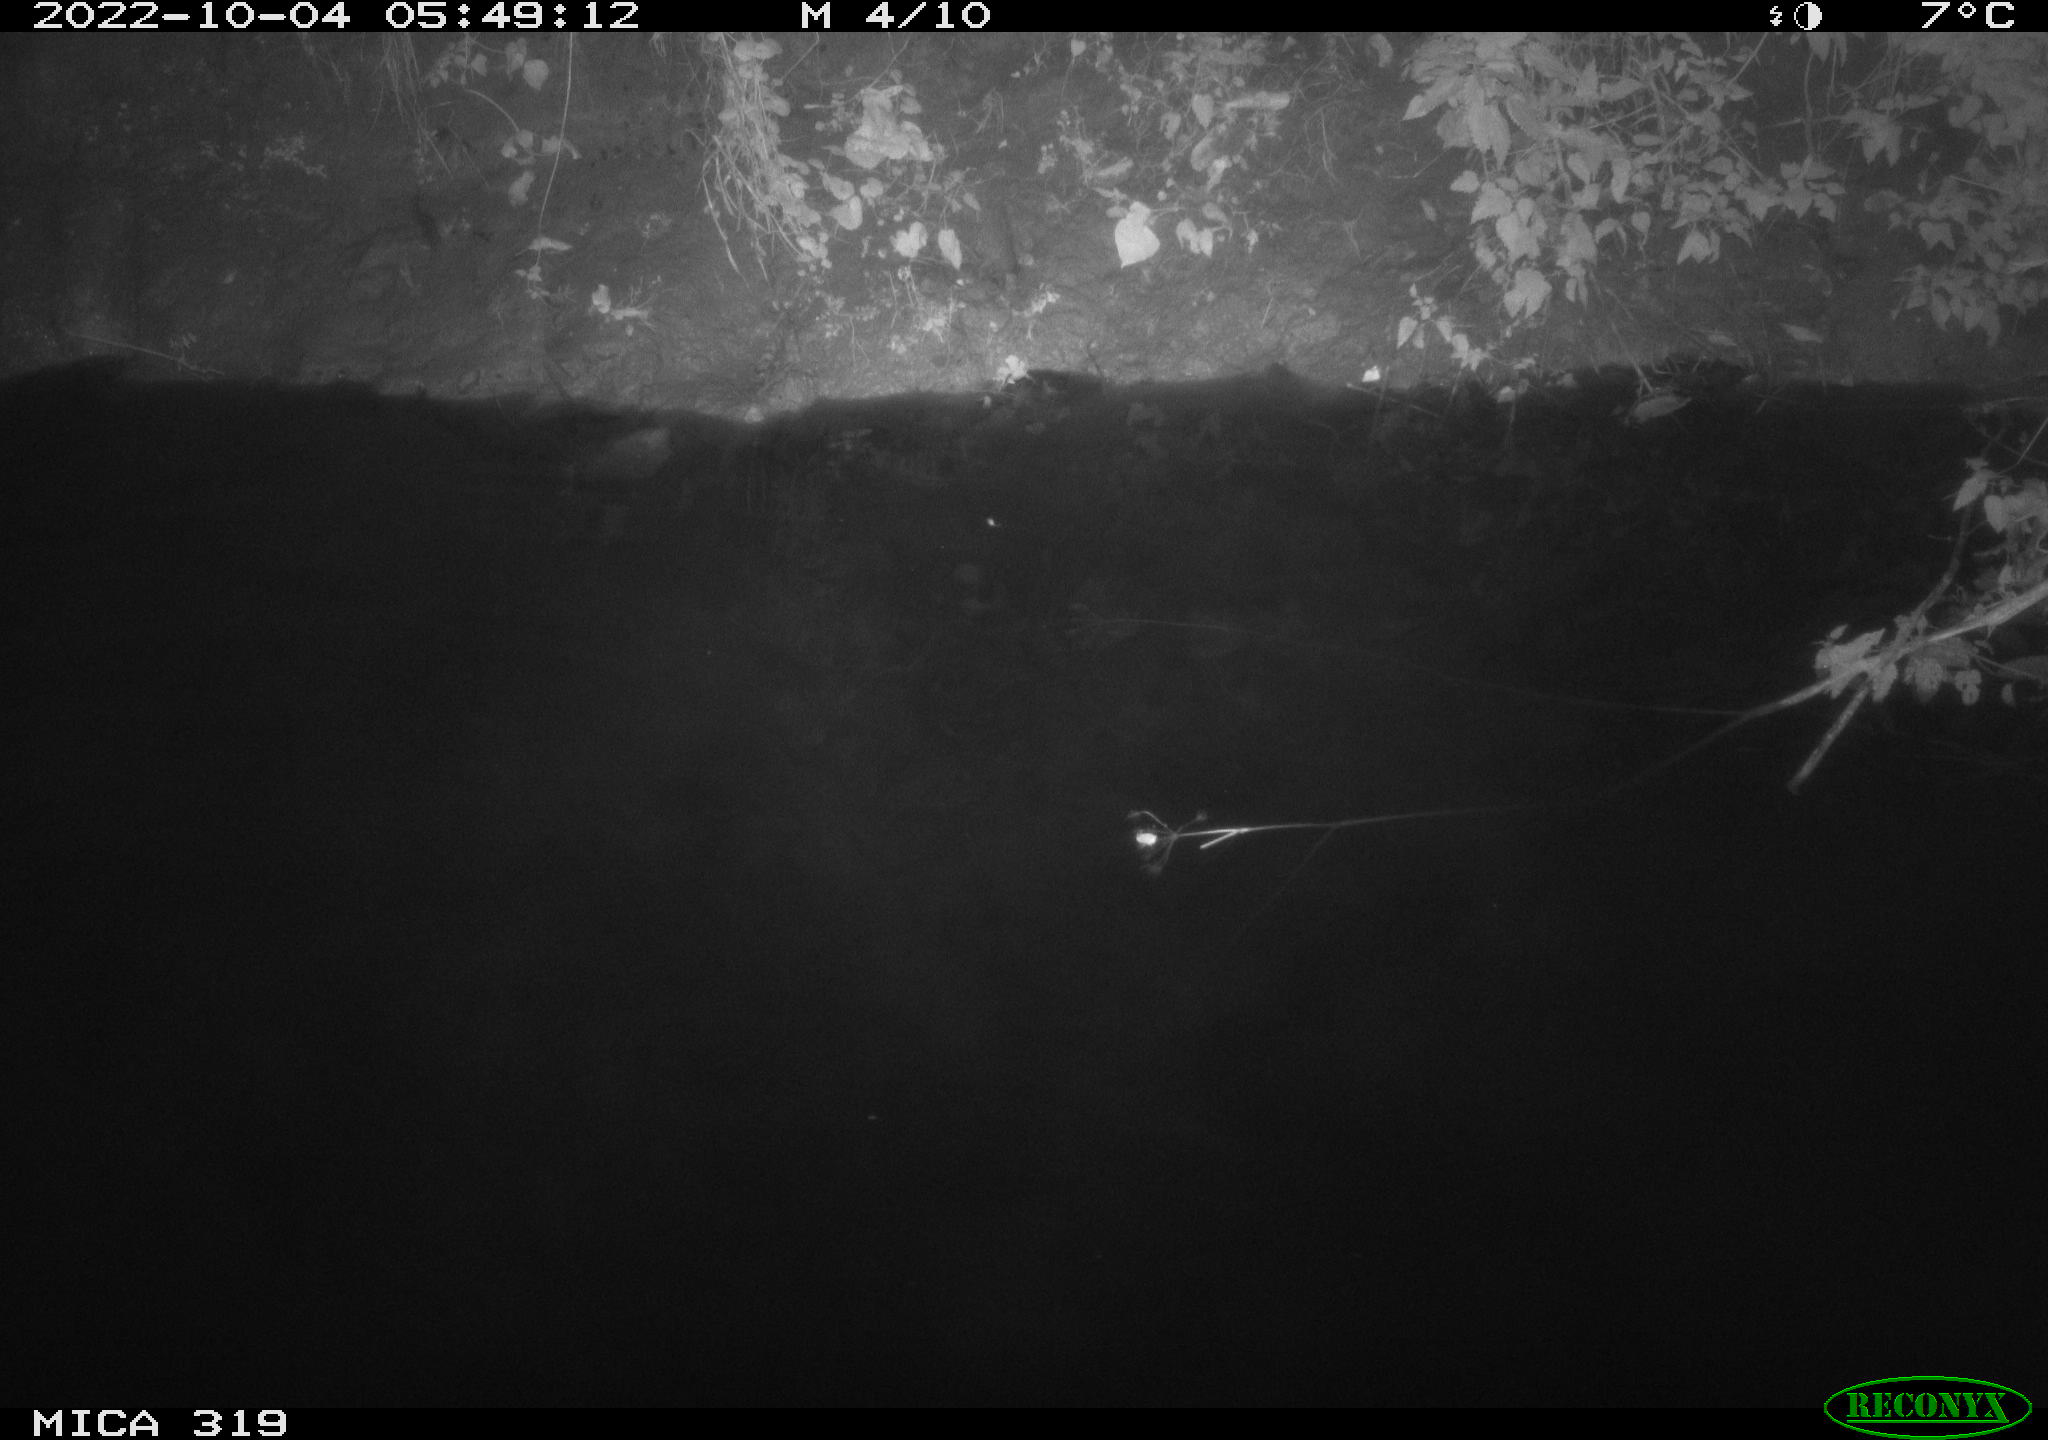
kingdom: Animalia
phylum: Chordata
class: Aves
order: Anseriformes
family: Anatidae
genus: Anas
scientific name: Anas
